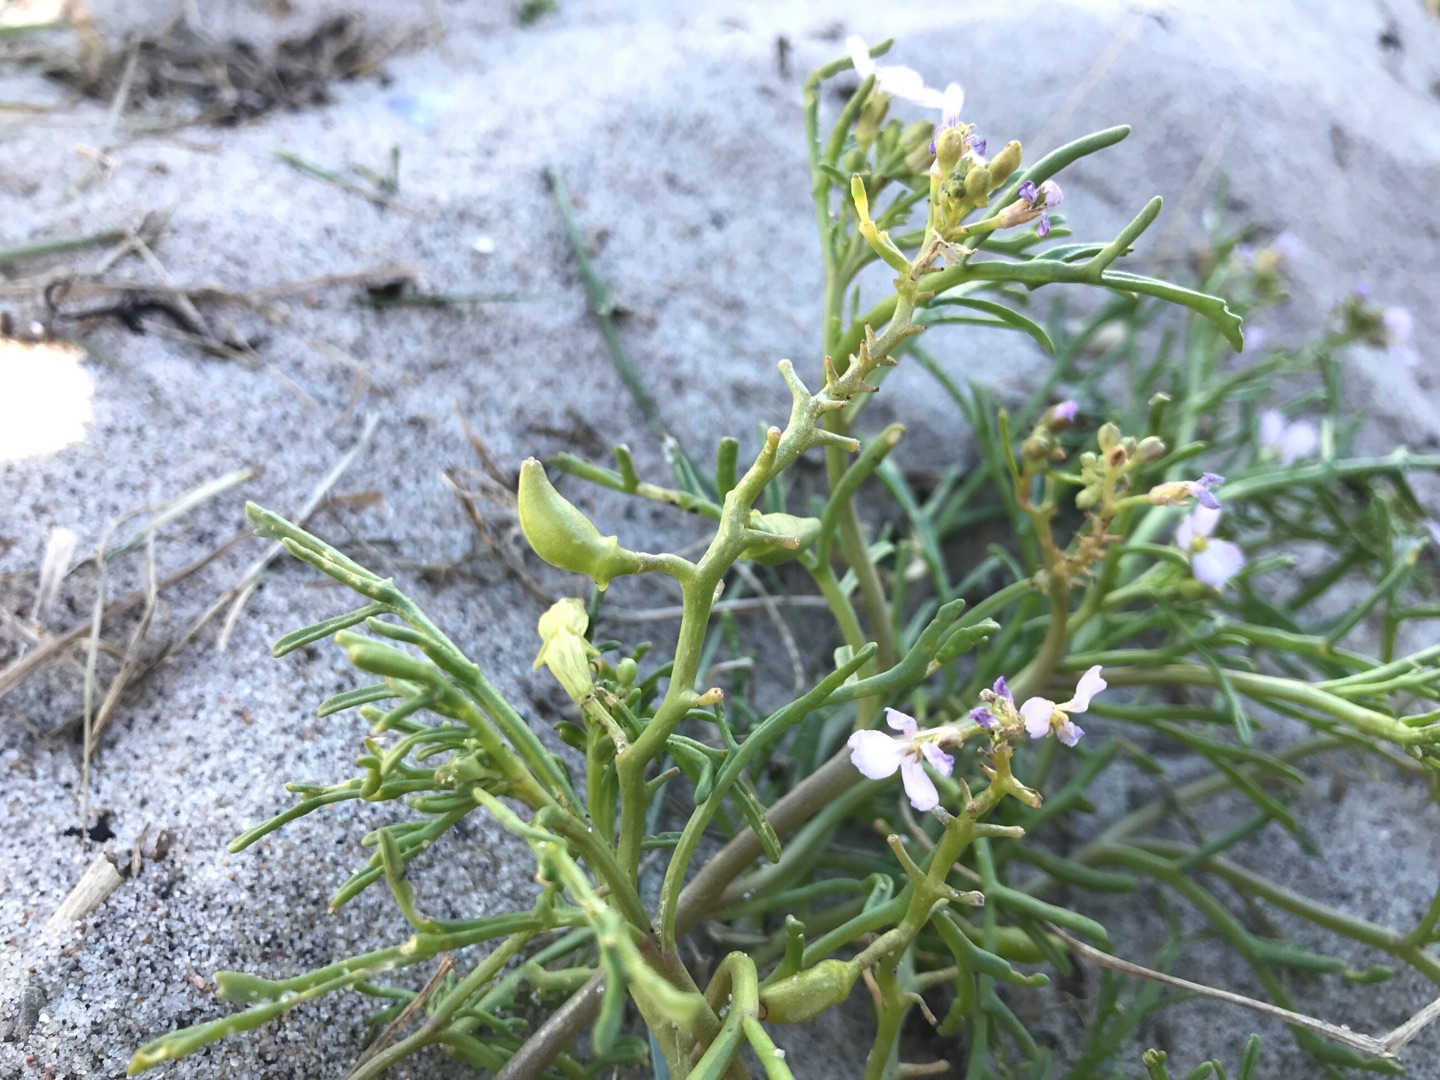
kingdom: Plantae
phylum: Tracheophyta
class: Magnoliopsida
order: Brassicales
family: Brassicaceae
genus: Cakile
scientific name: Cakile maritima
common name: Strandsennep
